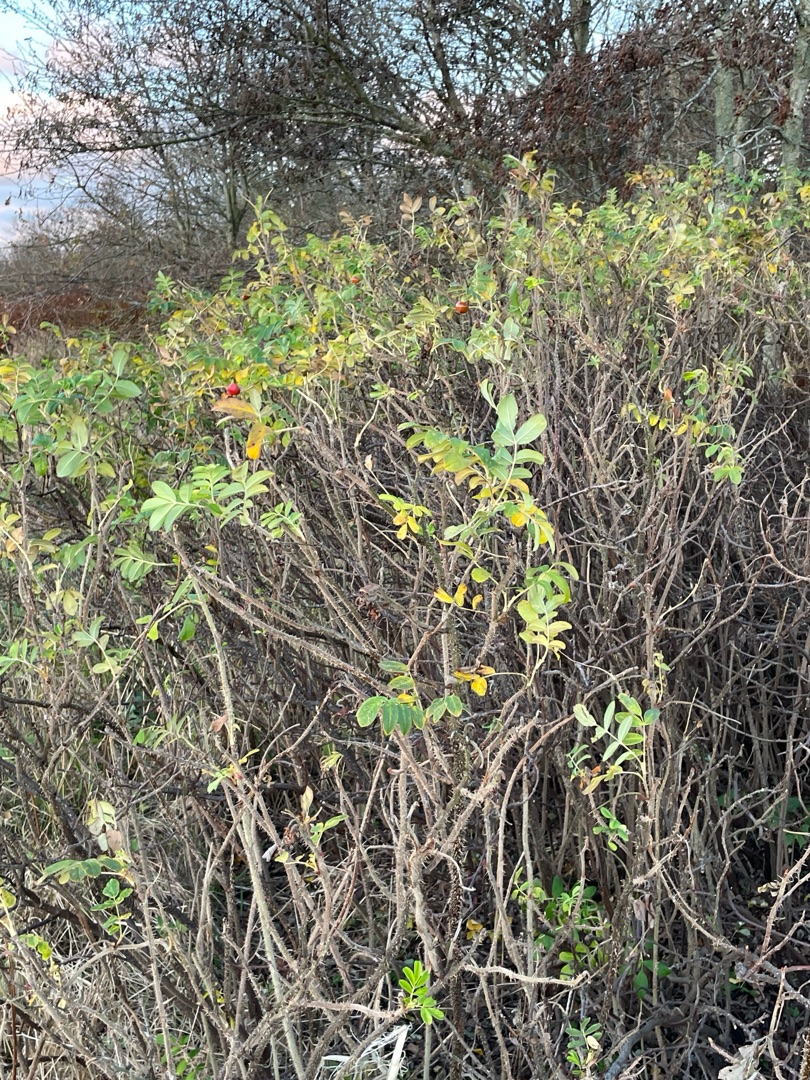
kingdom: Plantae
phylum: Tracheophyta
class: Magnoliopsida
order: Rosales
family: Rosaceae
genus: Rosa
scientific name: Rosa rugosa
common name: Rynket rose
